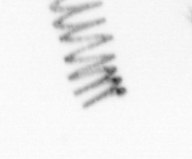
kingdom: Chromista
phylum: Ochrophyta
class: Bacillariophyceae
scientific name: Bacillariophyceae
